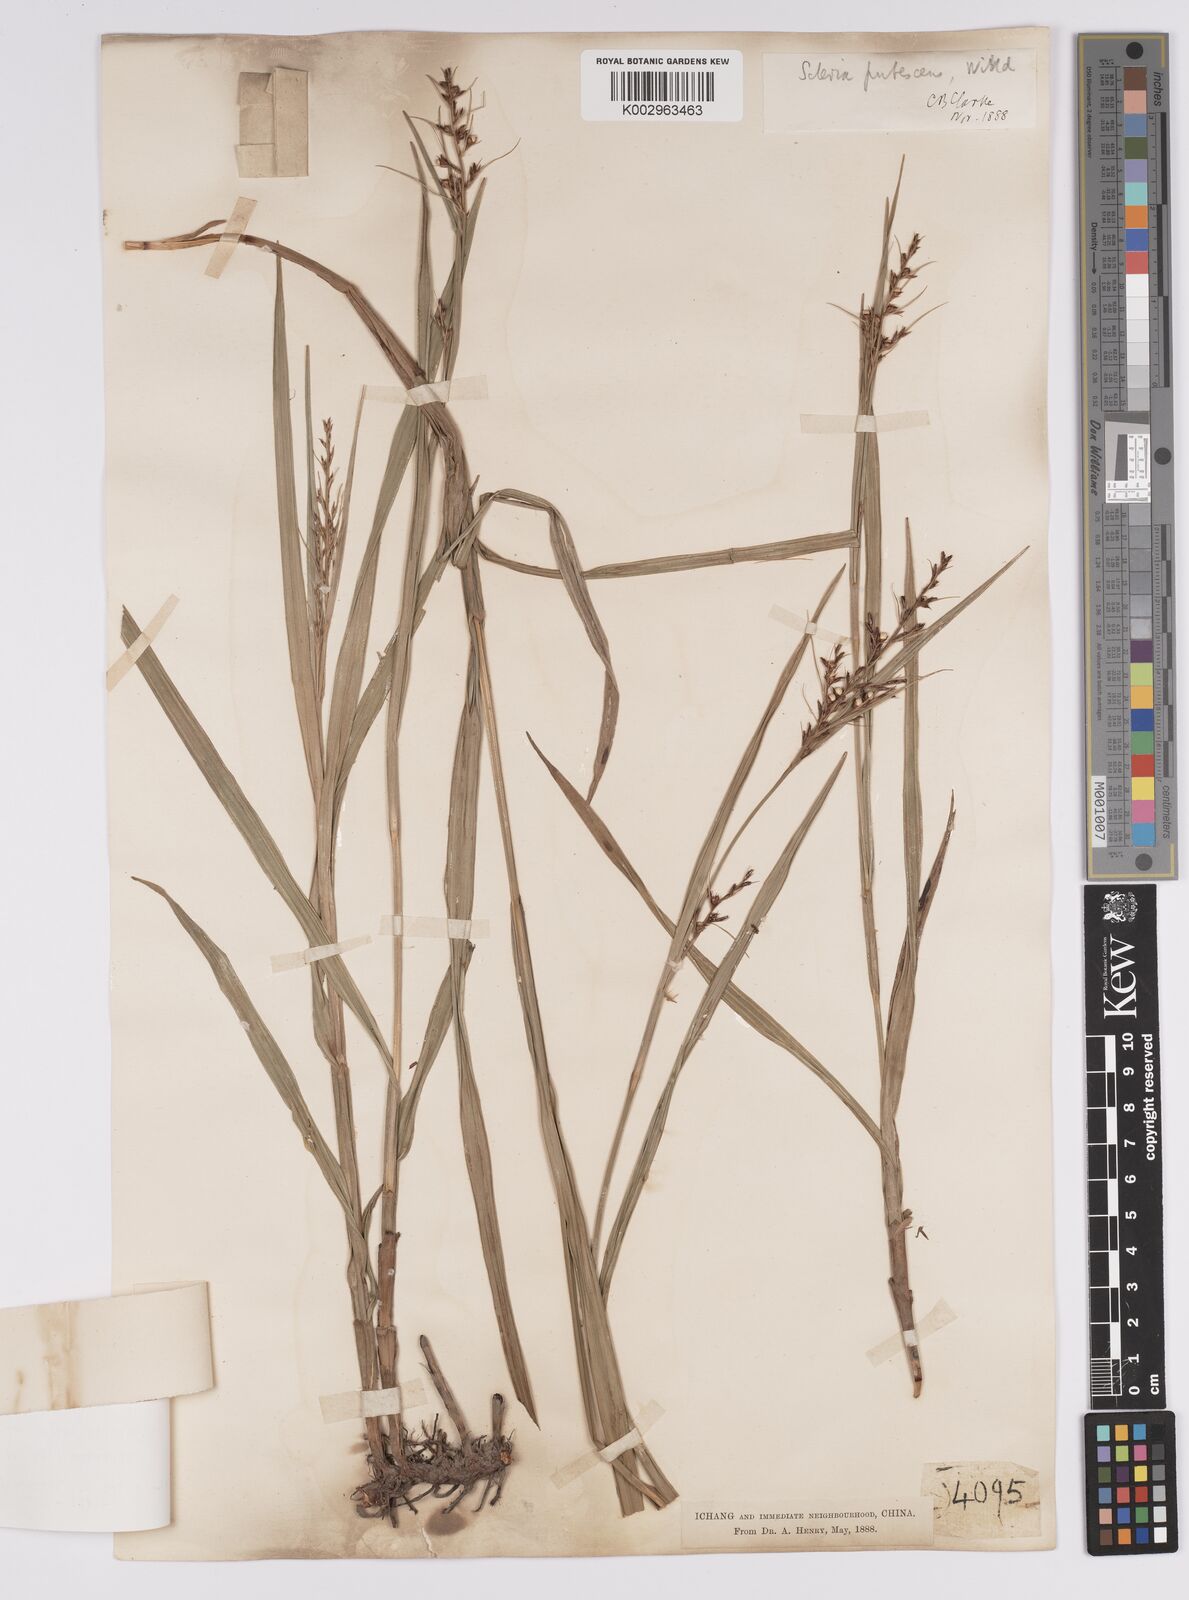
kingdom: Plantae
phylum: Tracheophyta
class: Liliopsida
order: Poales
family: Cyperaceae
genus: Scleria
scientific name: Scleria levis
